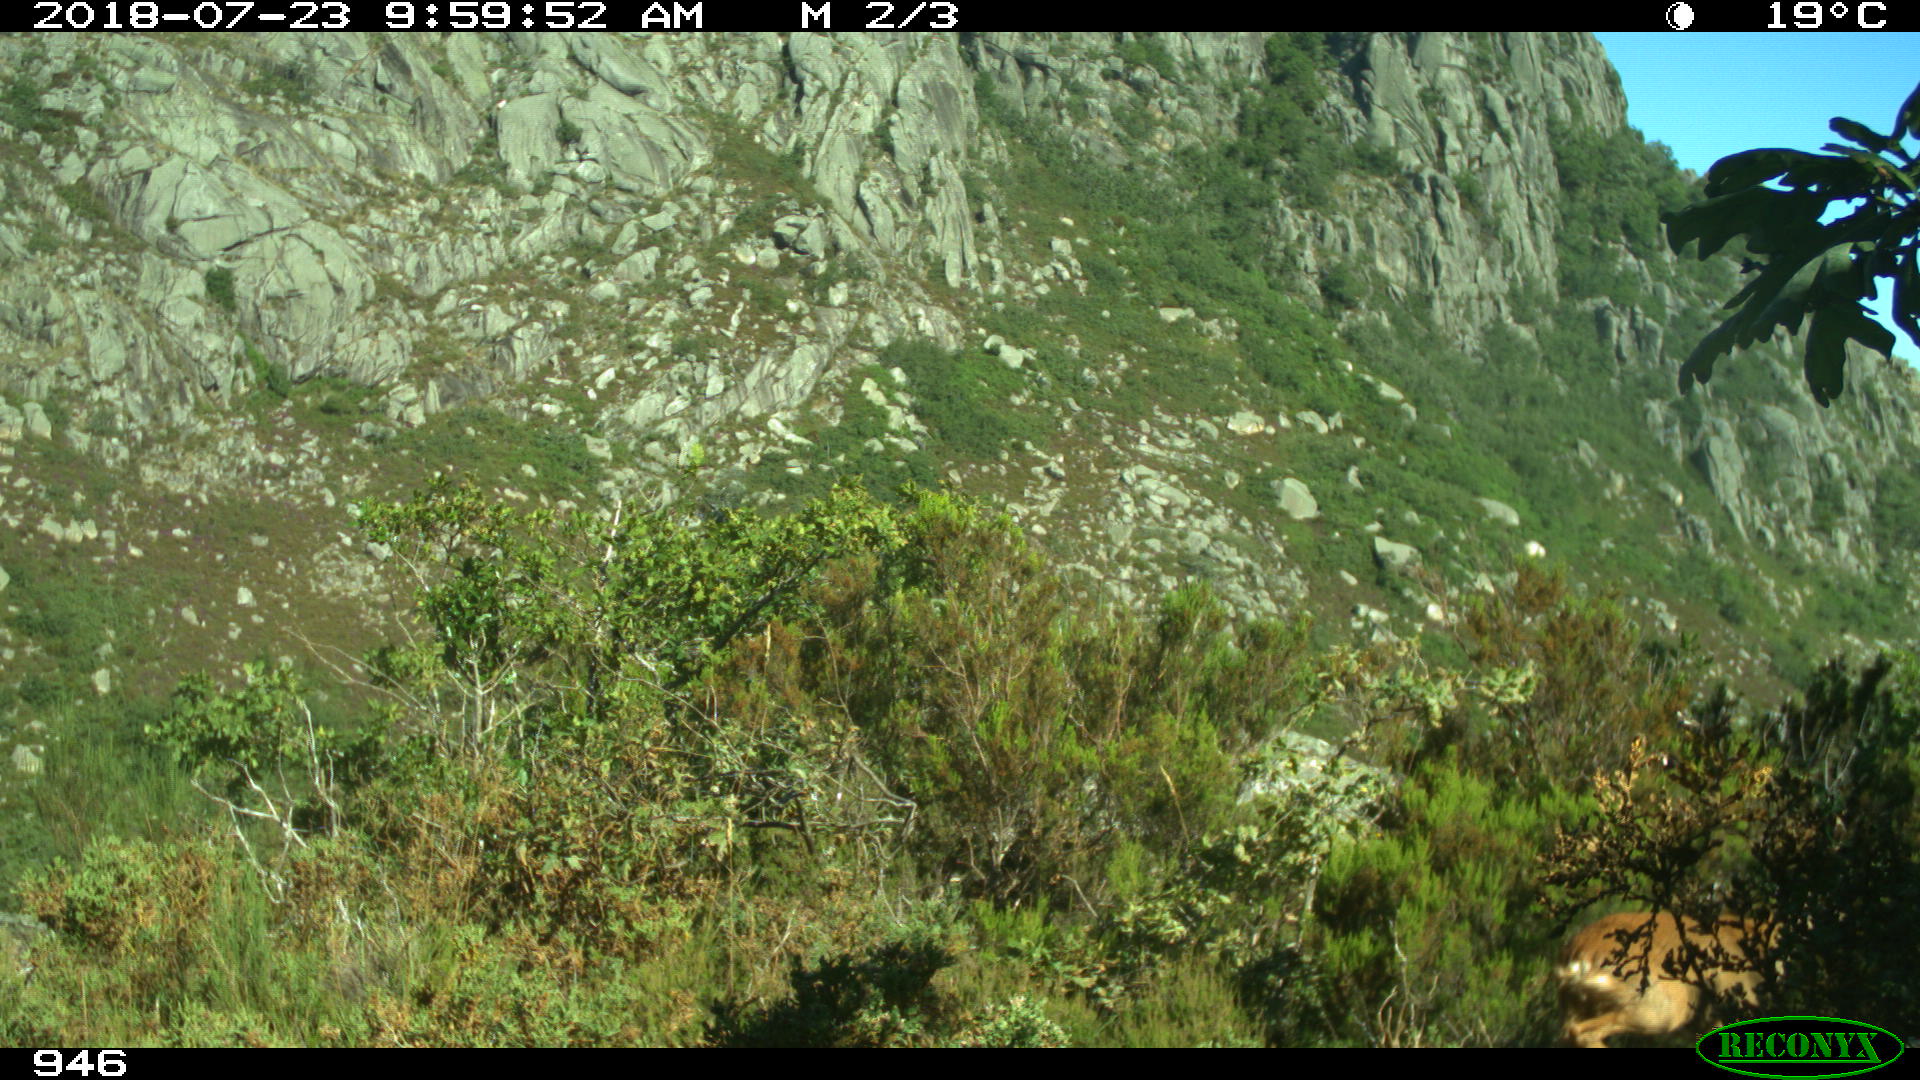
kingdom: Animalia
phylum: Chordata
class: Mammalia
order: Artiodactyla
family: Cervidae
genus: Capreolus
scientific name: Capreolus capreolus
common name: Western roe deer
